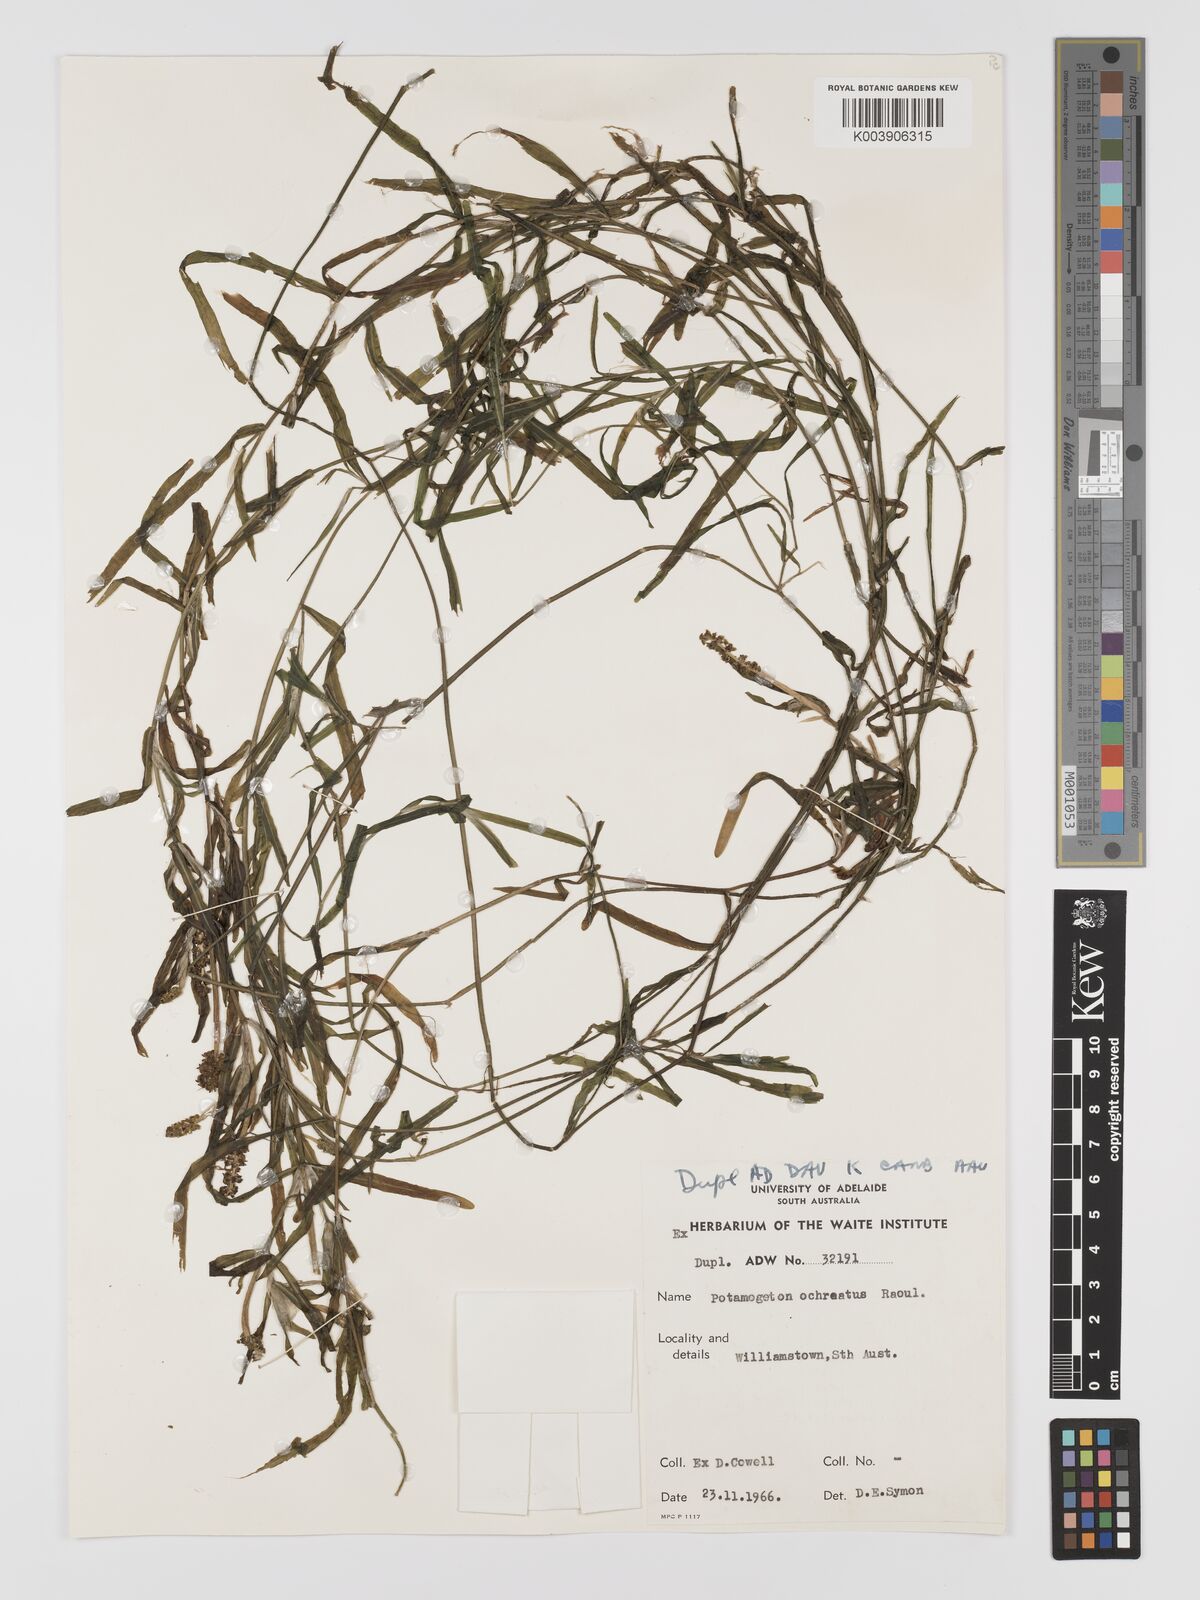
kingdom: Plantae
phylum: Tracheophyta
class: Liliopsida
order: Alismatales
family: Potamogetonaceae
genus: Potamogeton
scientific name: Potamogeton ochreatus
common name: Blunt pondweed
